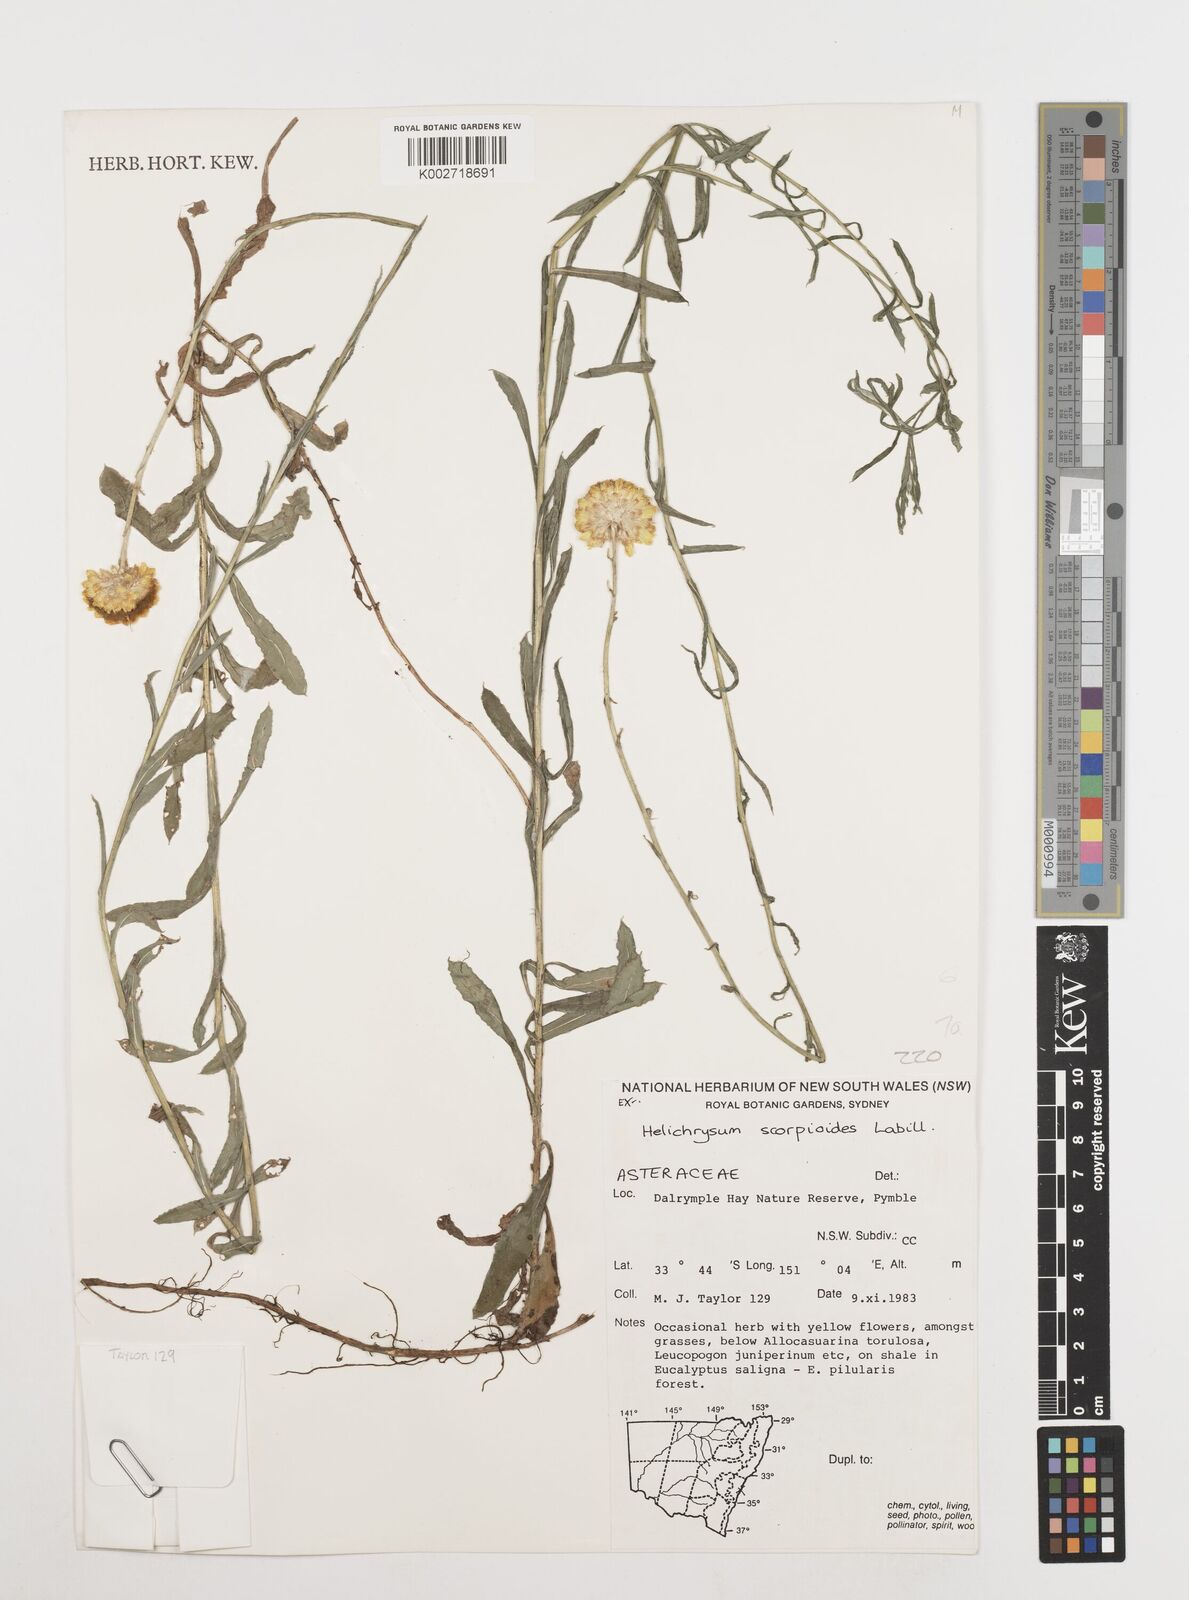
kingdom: Plantae
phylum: Tracheophyta
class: Magnoliopsida
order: Asterales
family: Asteraceae
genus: Coronidium
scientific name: Coronidium scorpioides
